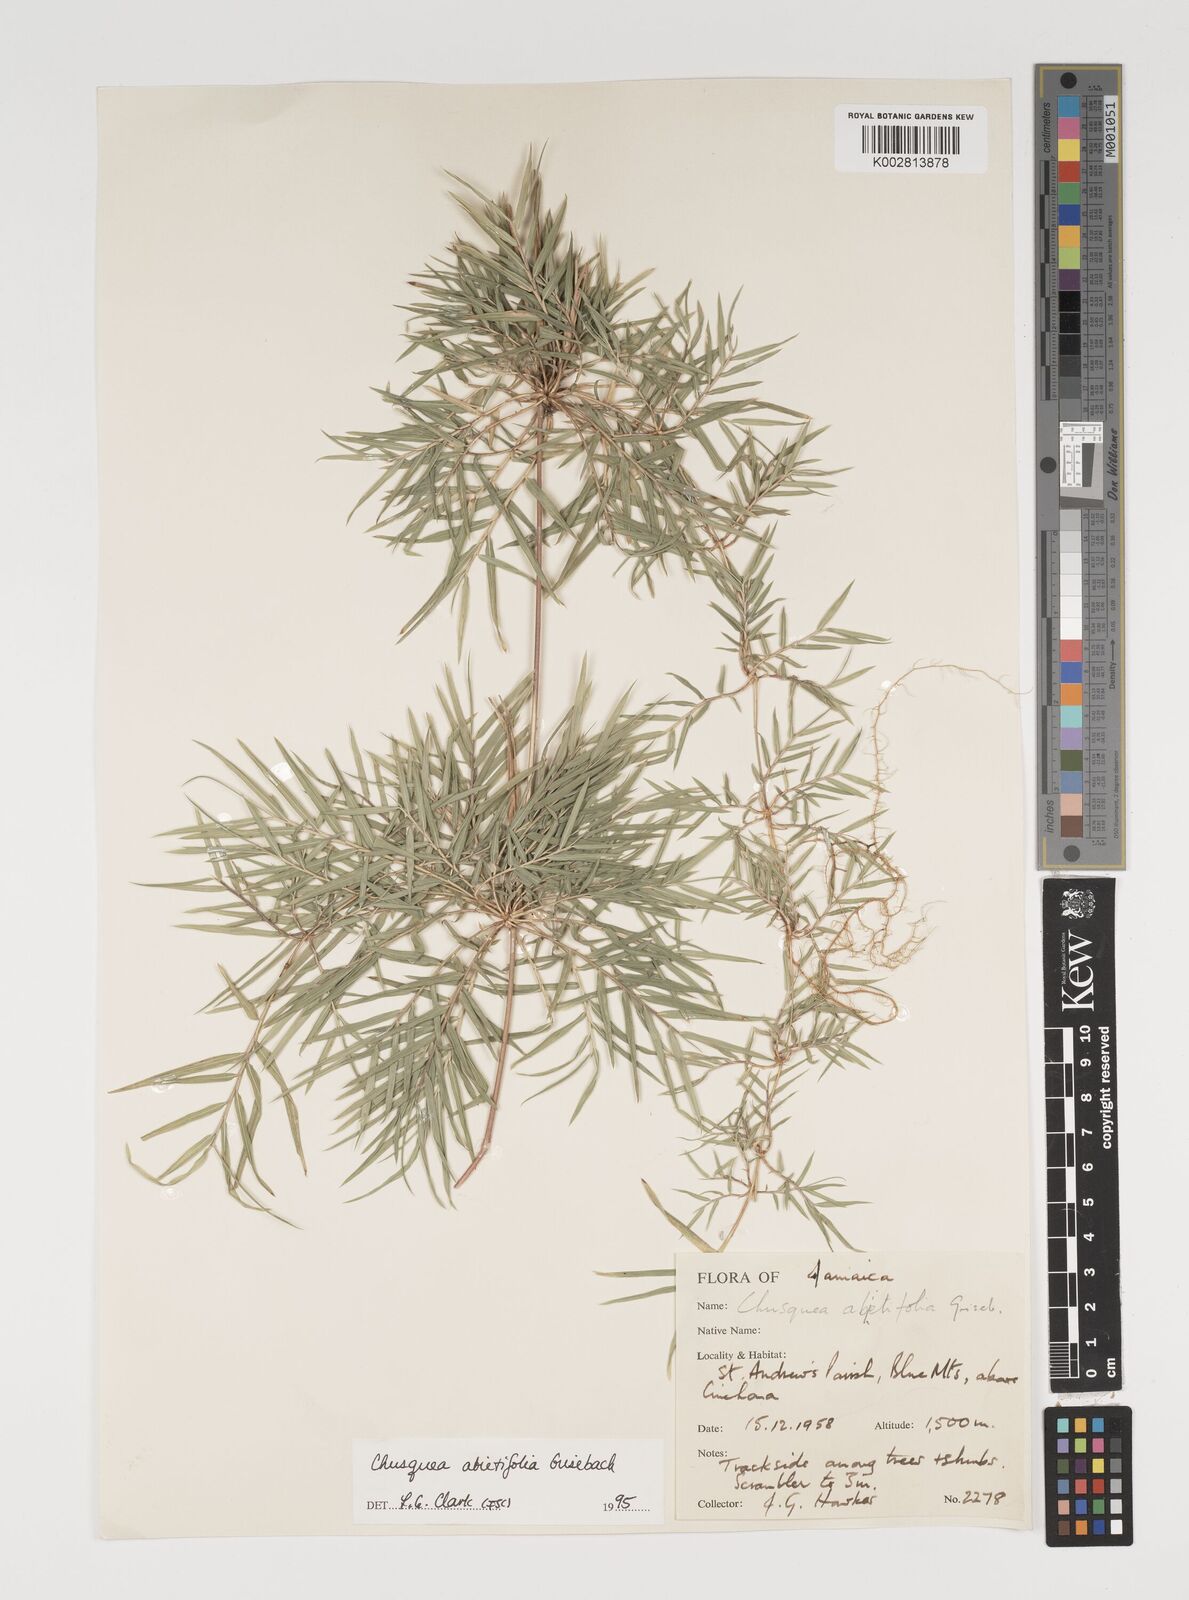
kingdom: Plantae
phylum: Tracheophyta
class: Liliopsida
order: Poales
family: Poaceae
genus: Chusquea
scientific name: Chusquea abietifolia
